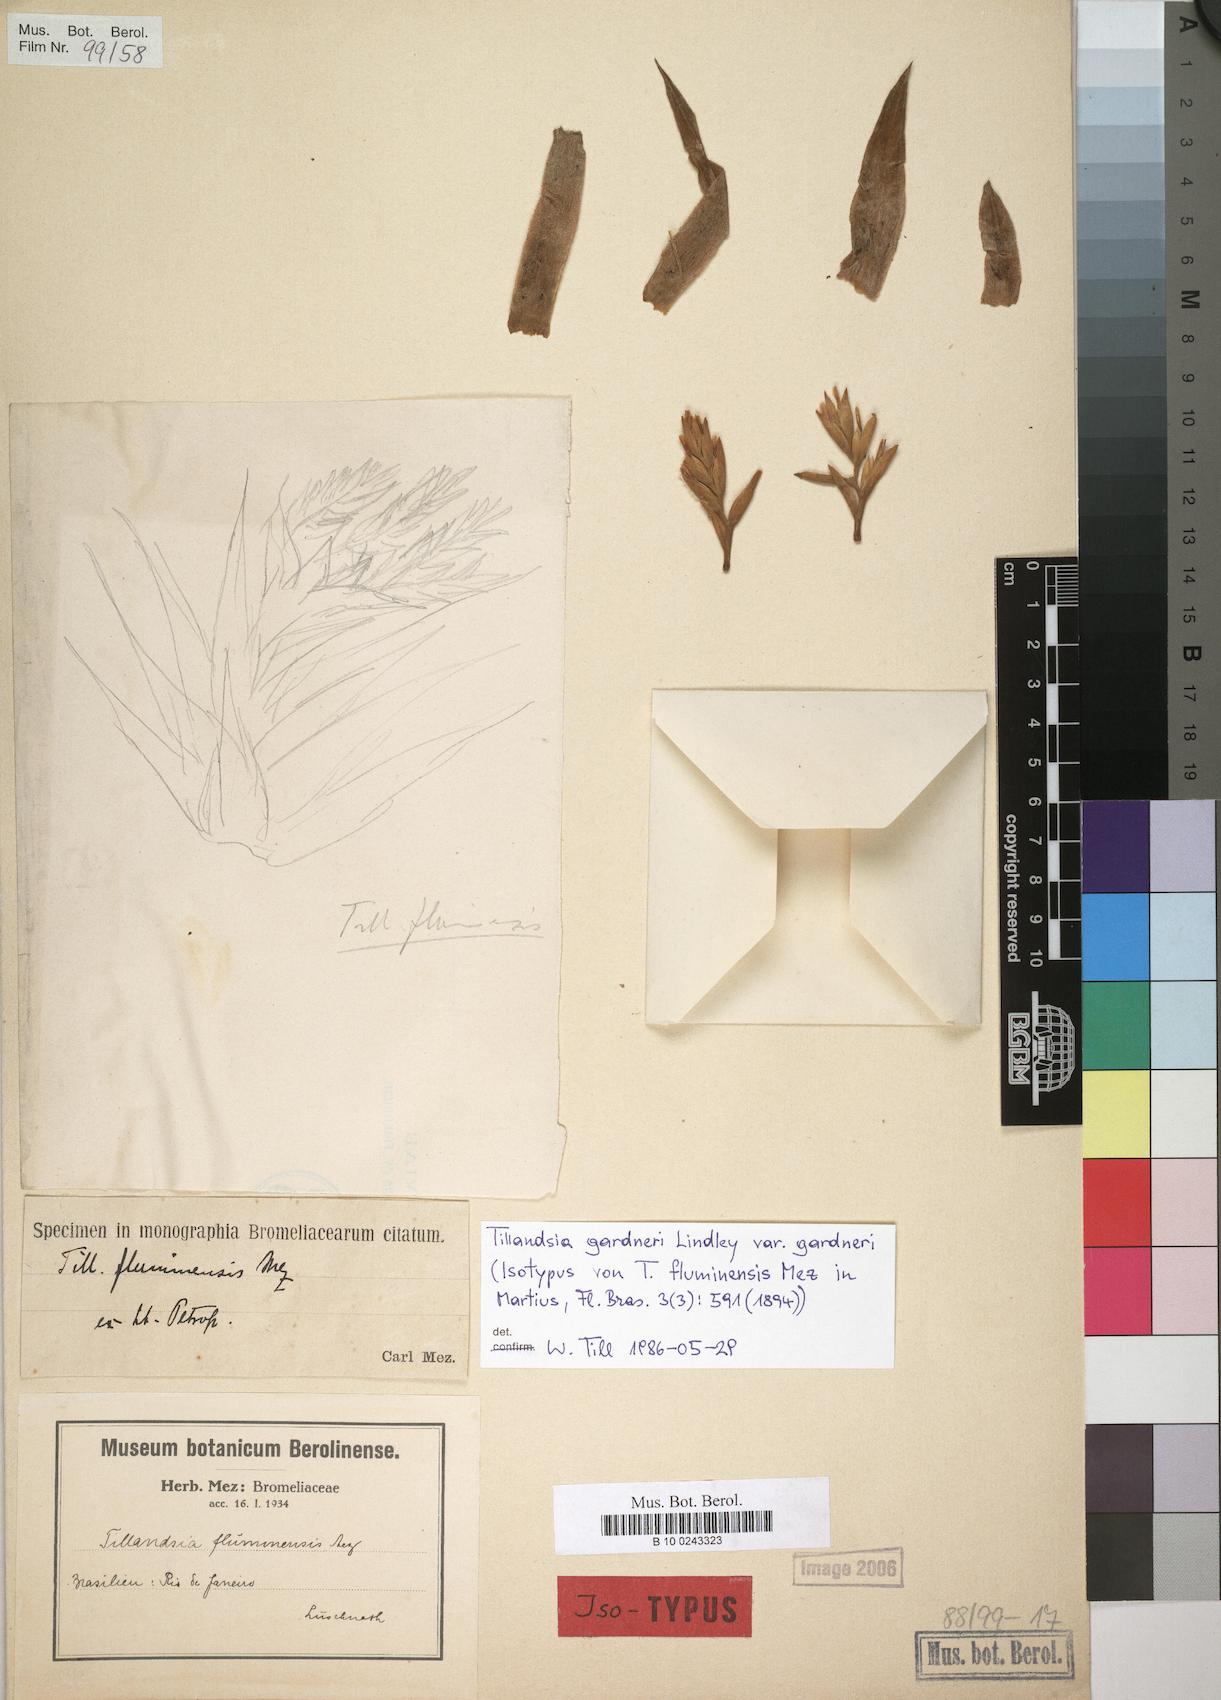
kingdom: Plantae
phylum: Tracheophyta
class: Liliopsida
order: Poales
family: Bromeliaceae
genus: Tillandsia
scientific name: Tillandsia gardneri
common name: Airplant
